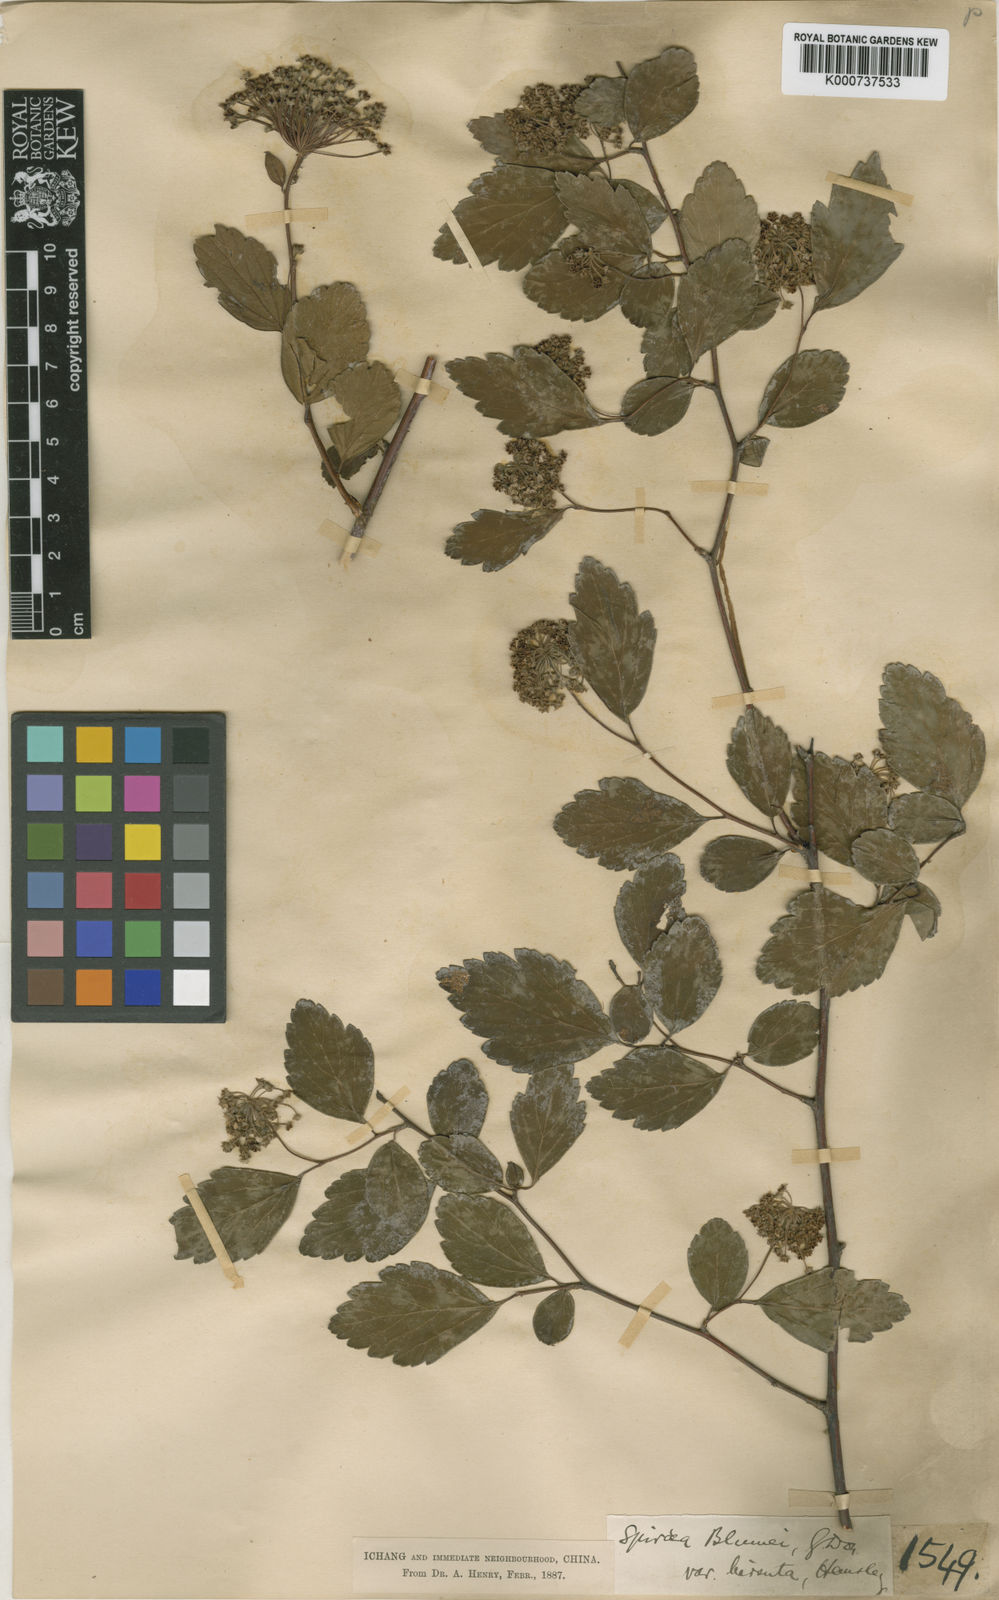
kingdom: Plantae
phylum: Tracheophyta
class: Magnoliopsida
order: Rosales
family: Rosaceae
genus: Spiraea
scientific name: Spiraea hirsuta
